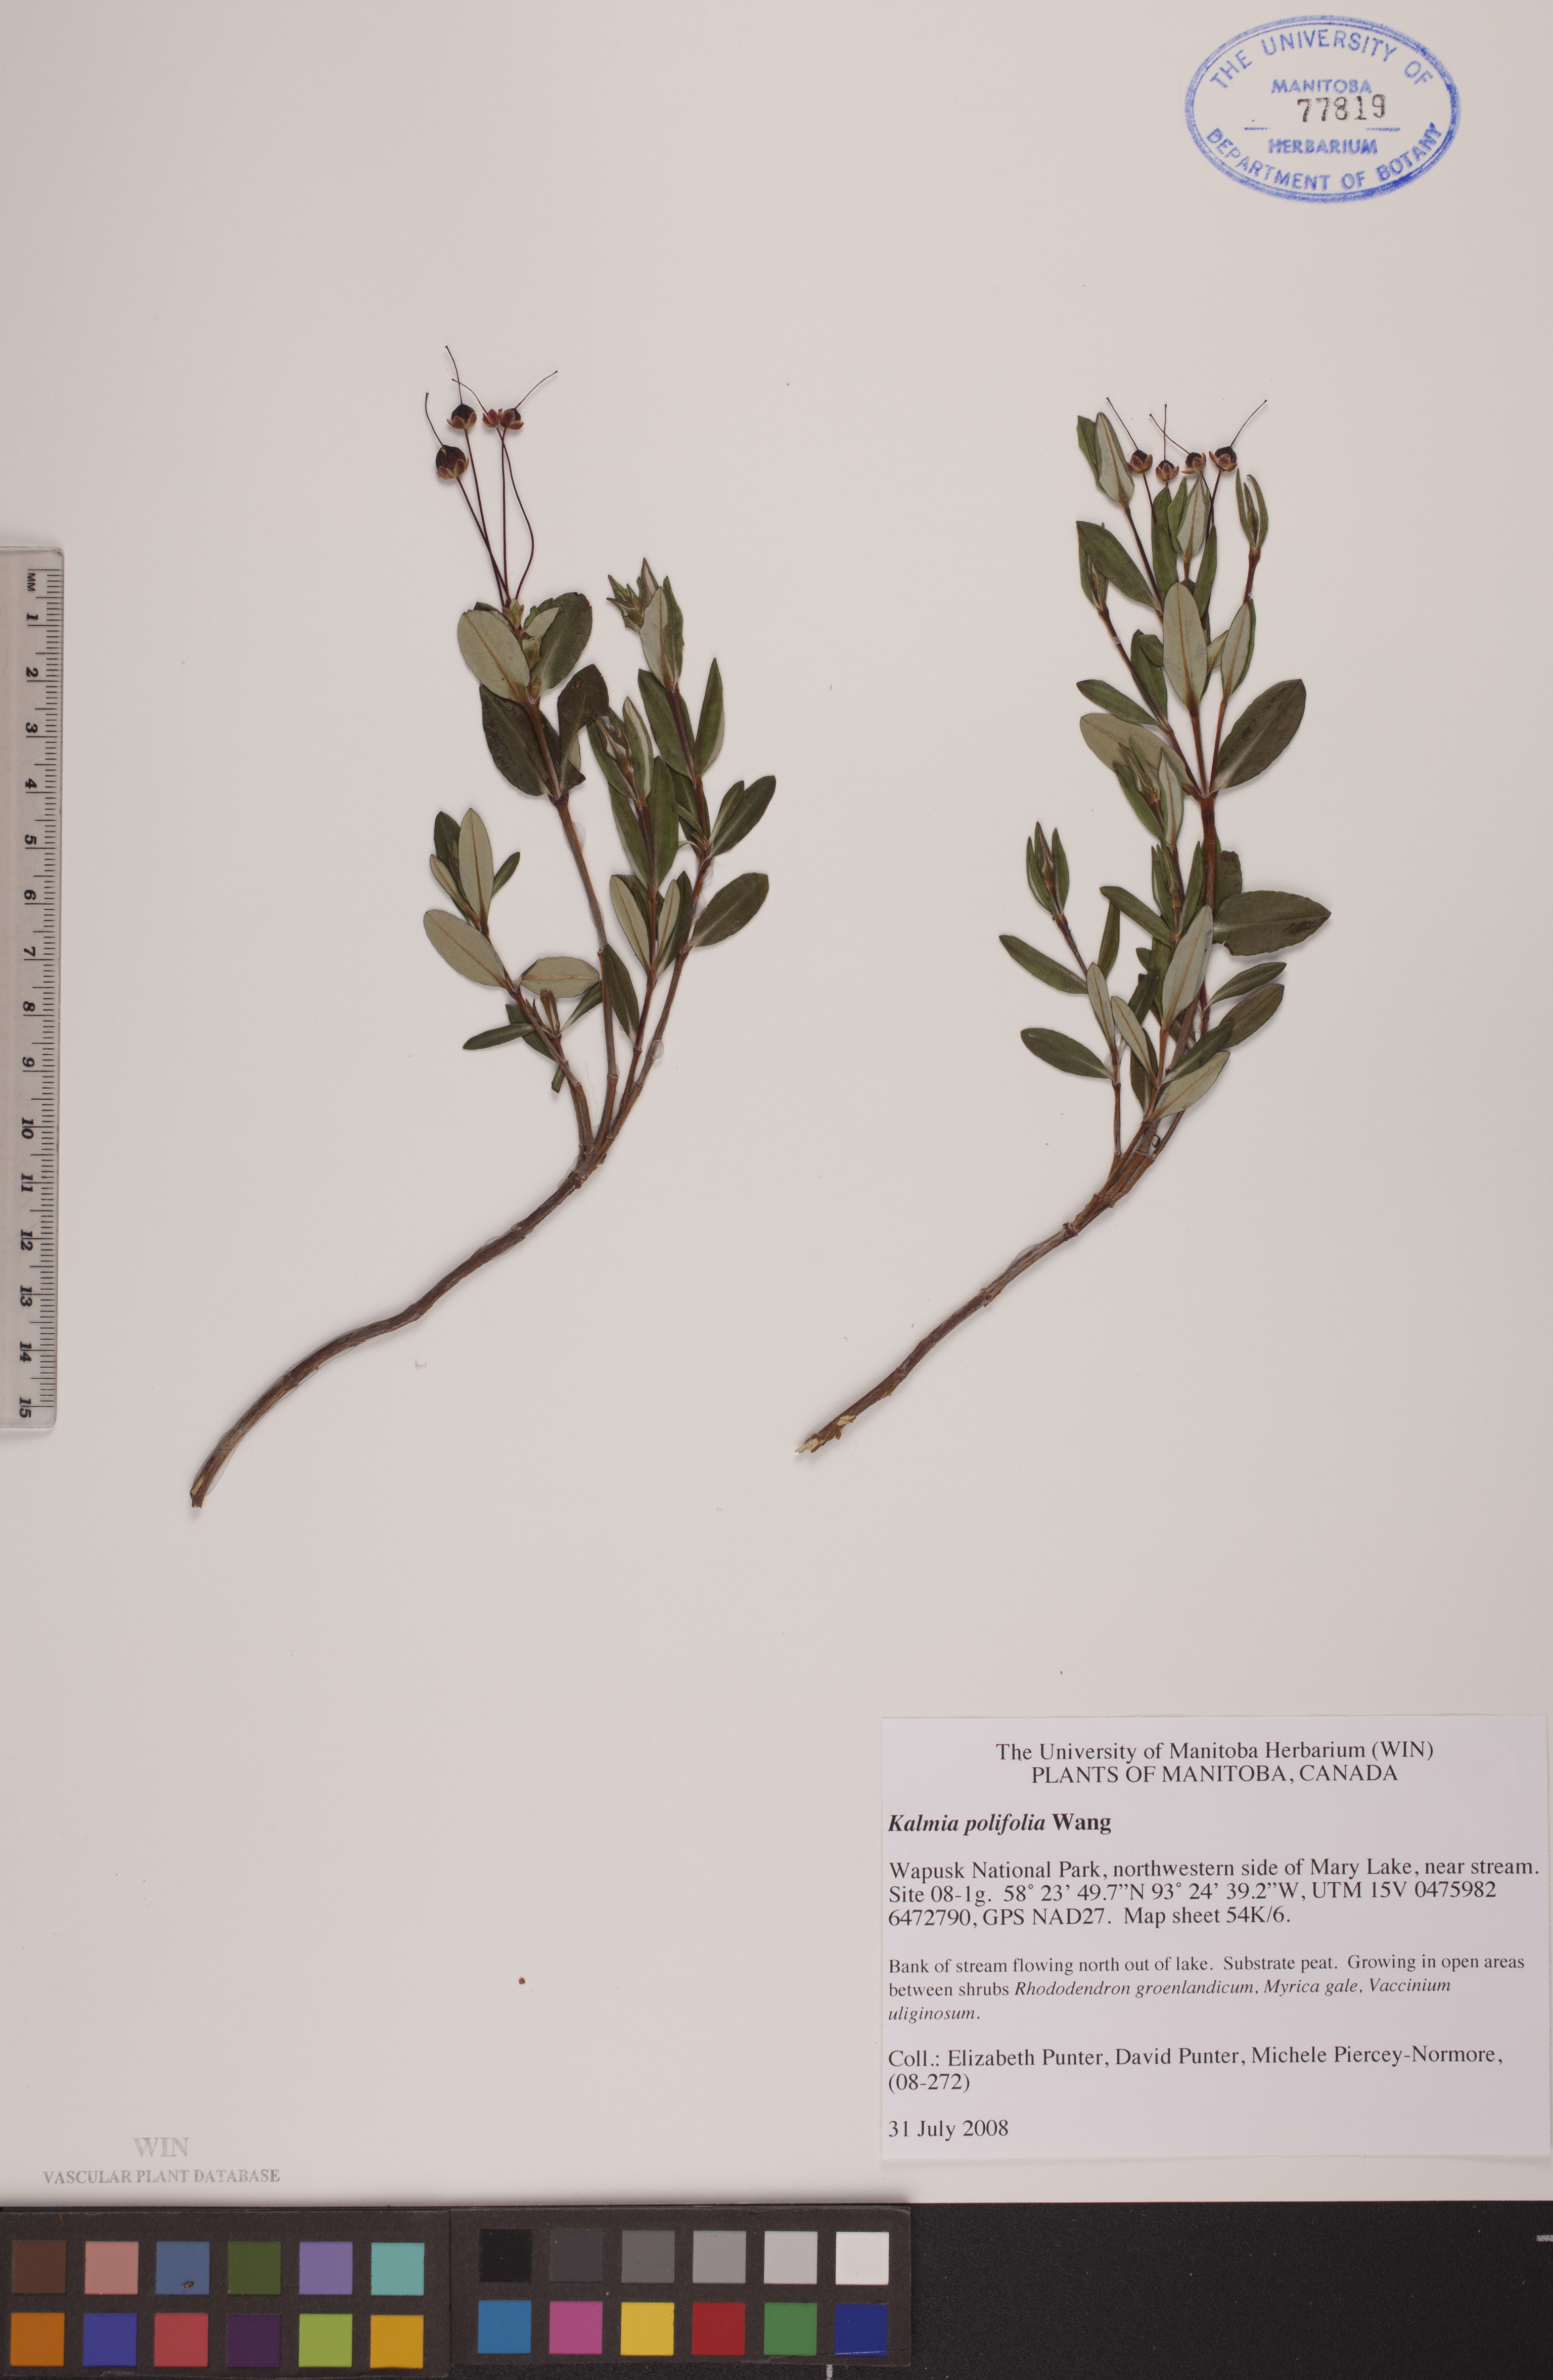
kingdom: Plantae
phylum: Tracheophyta
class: Magnoliopsida
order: Ericales
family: Ericaceae
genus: Kalmia
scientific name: Kalmia polifolia
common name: Bog-laurel
